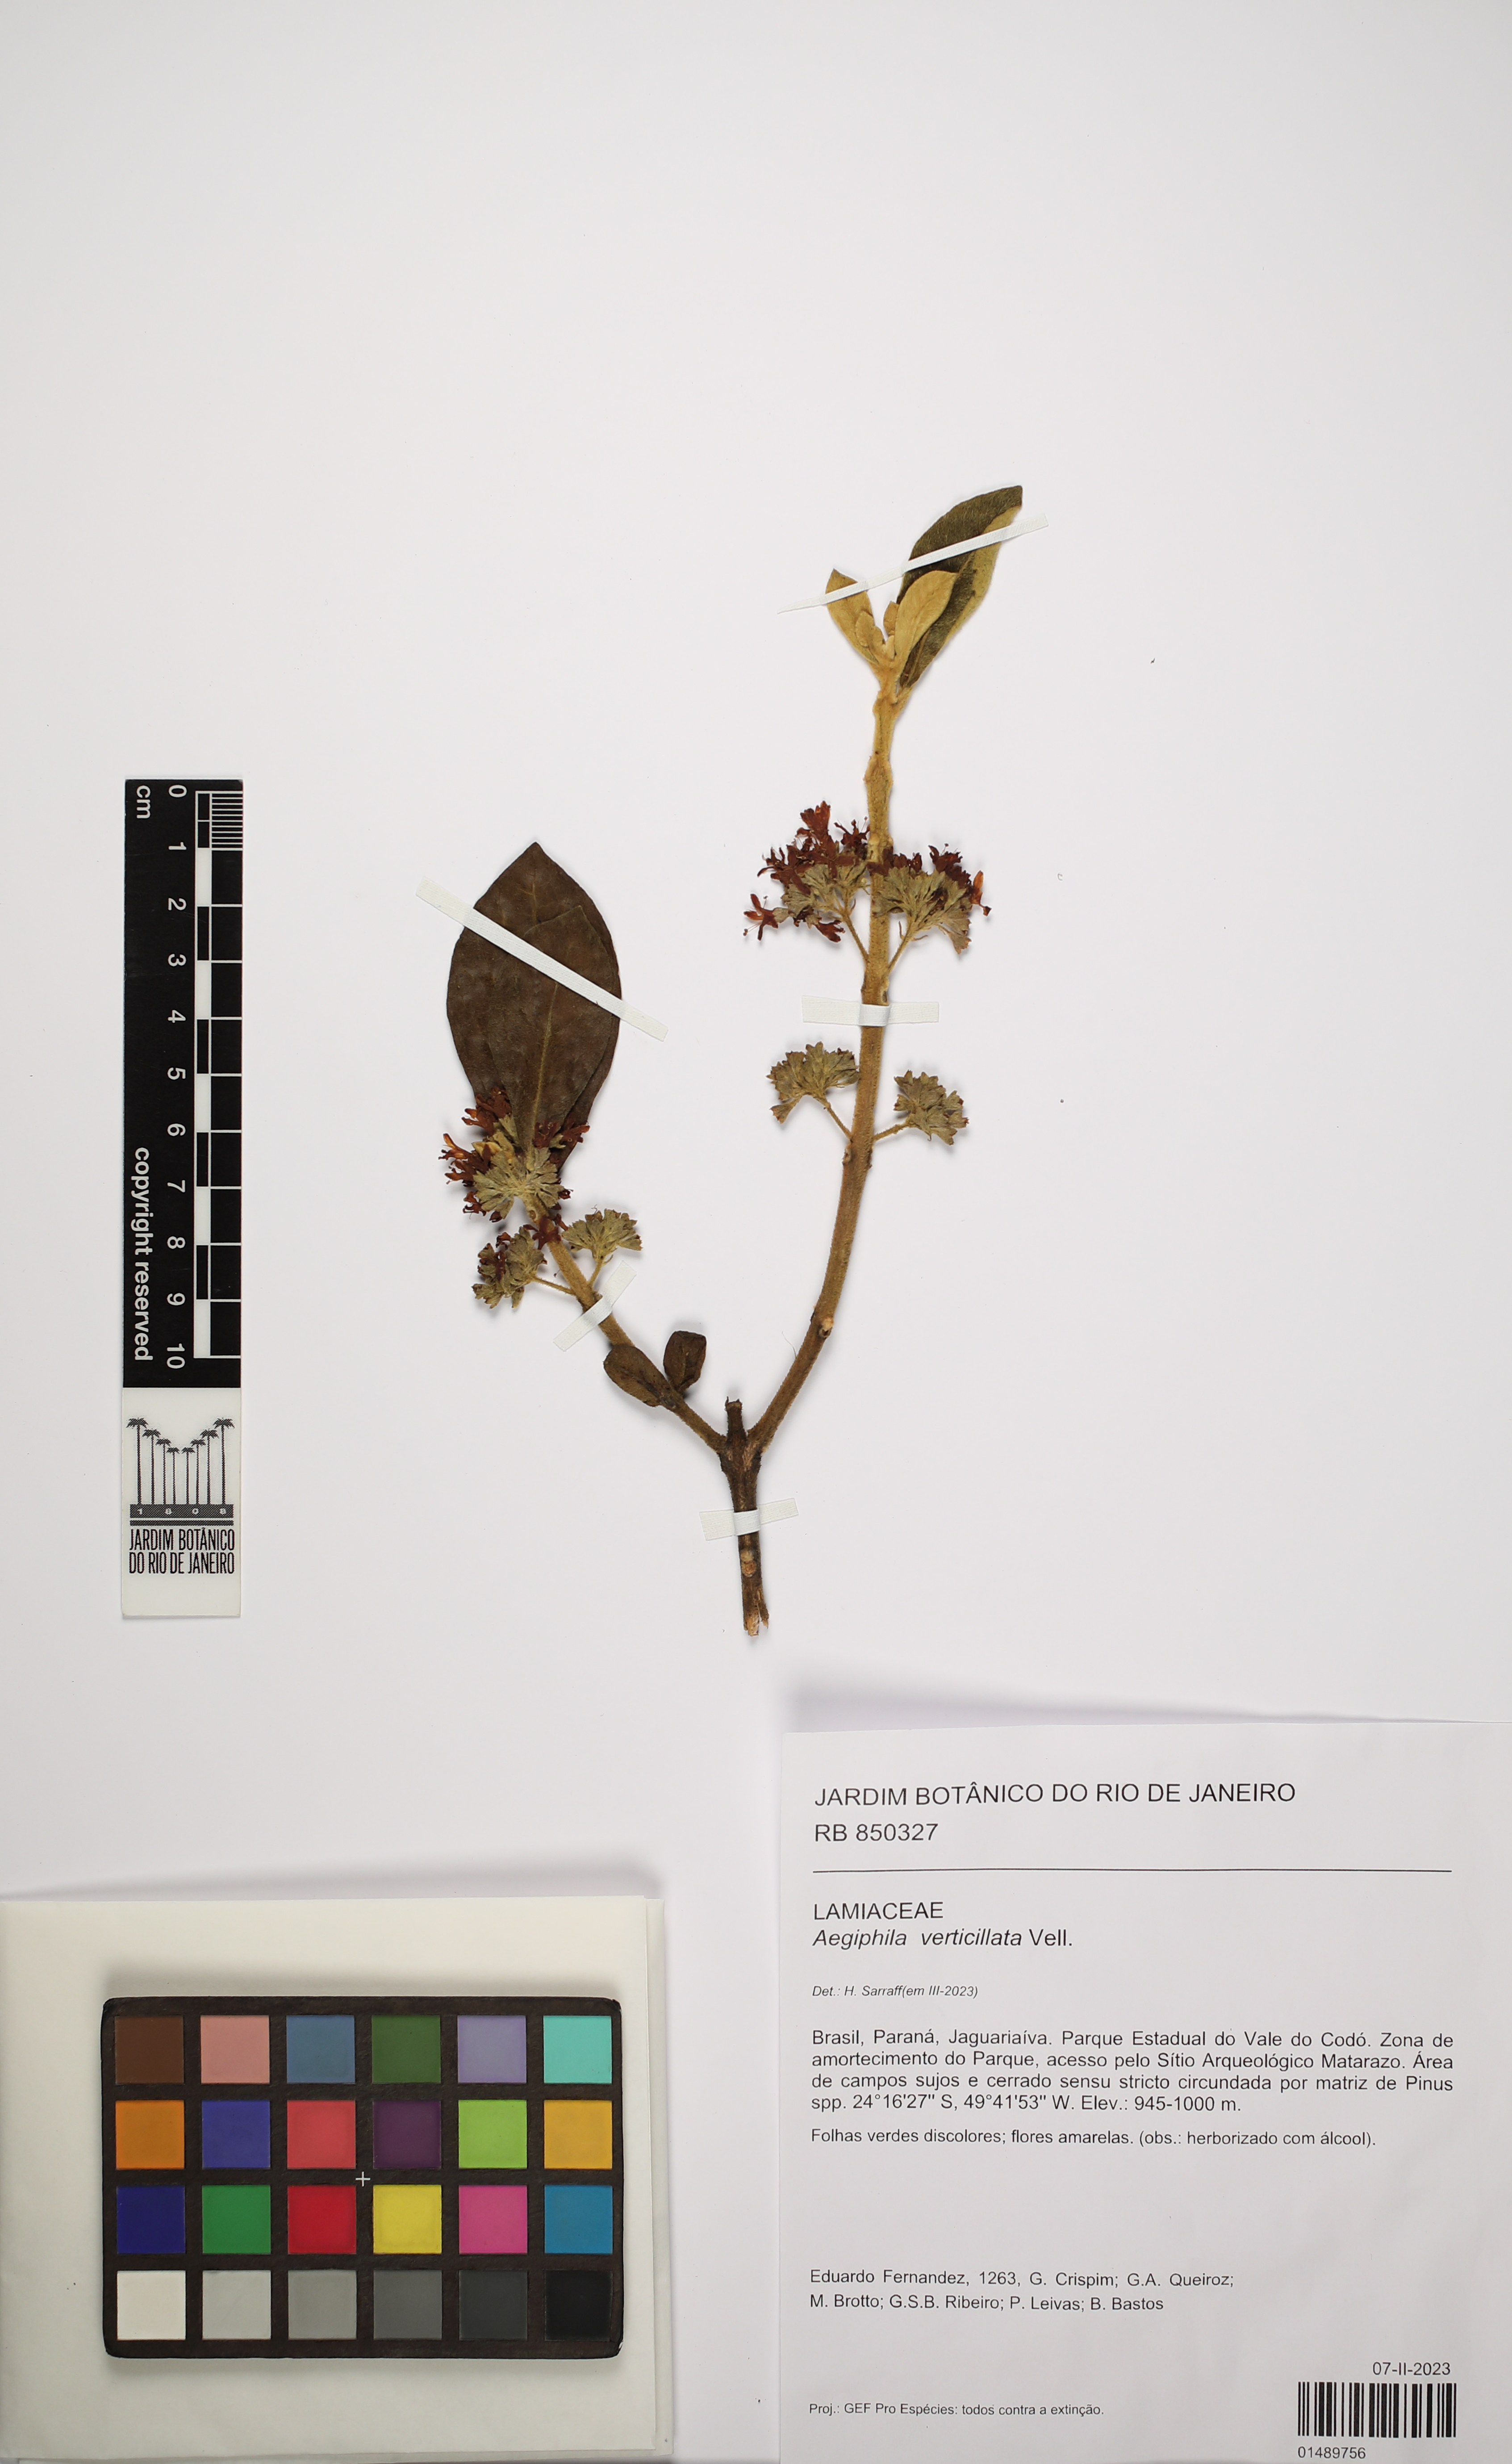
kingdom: Plantae
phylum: Tracheophyta
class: Magnoliopsida
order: Lamiales
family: Lamiaceae
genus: Aegiphila
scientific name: Aegiphila verticillata
